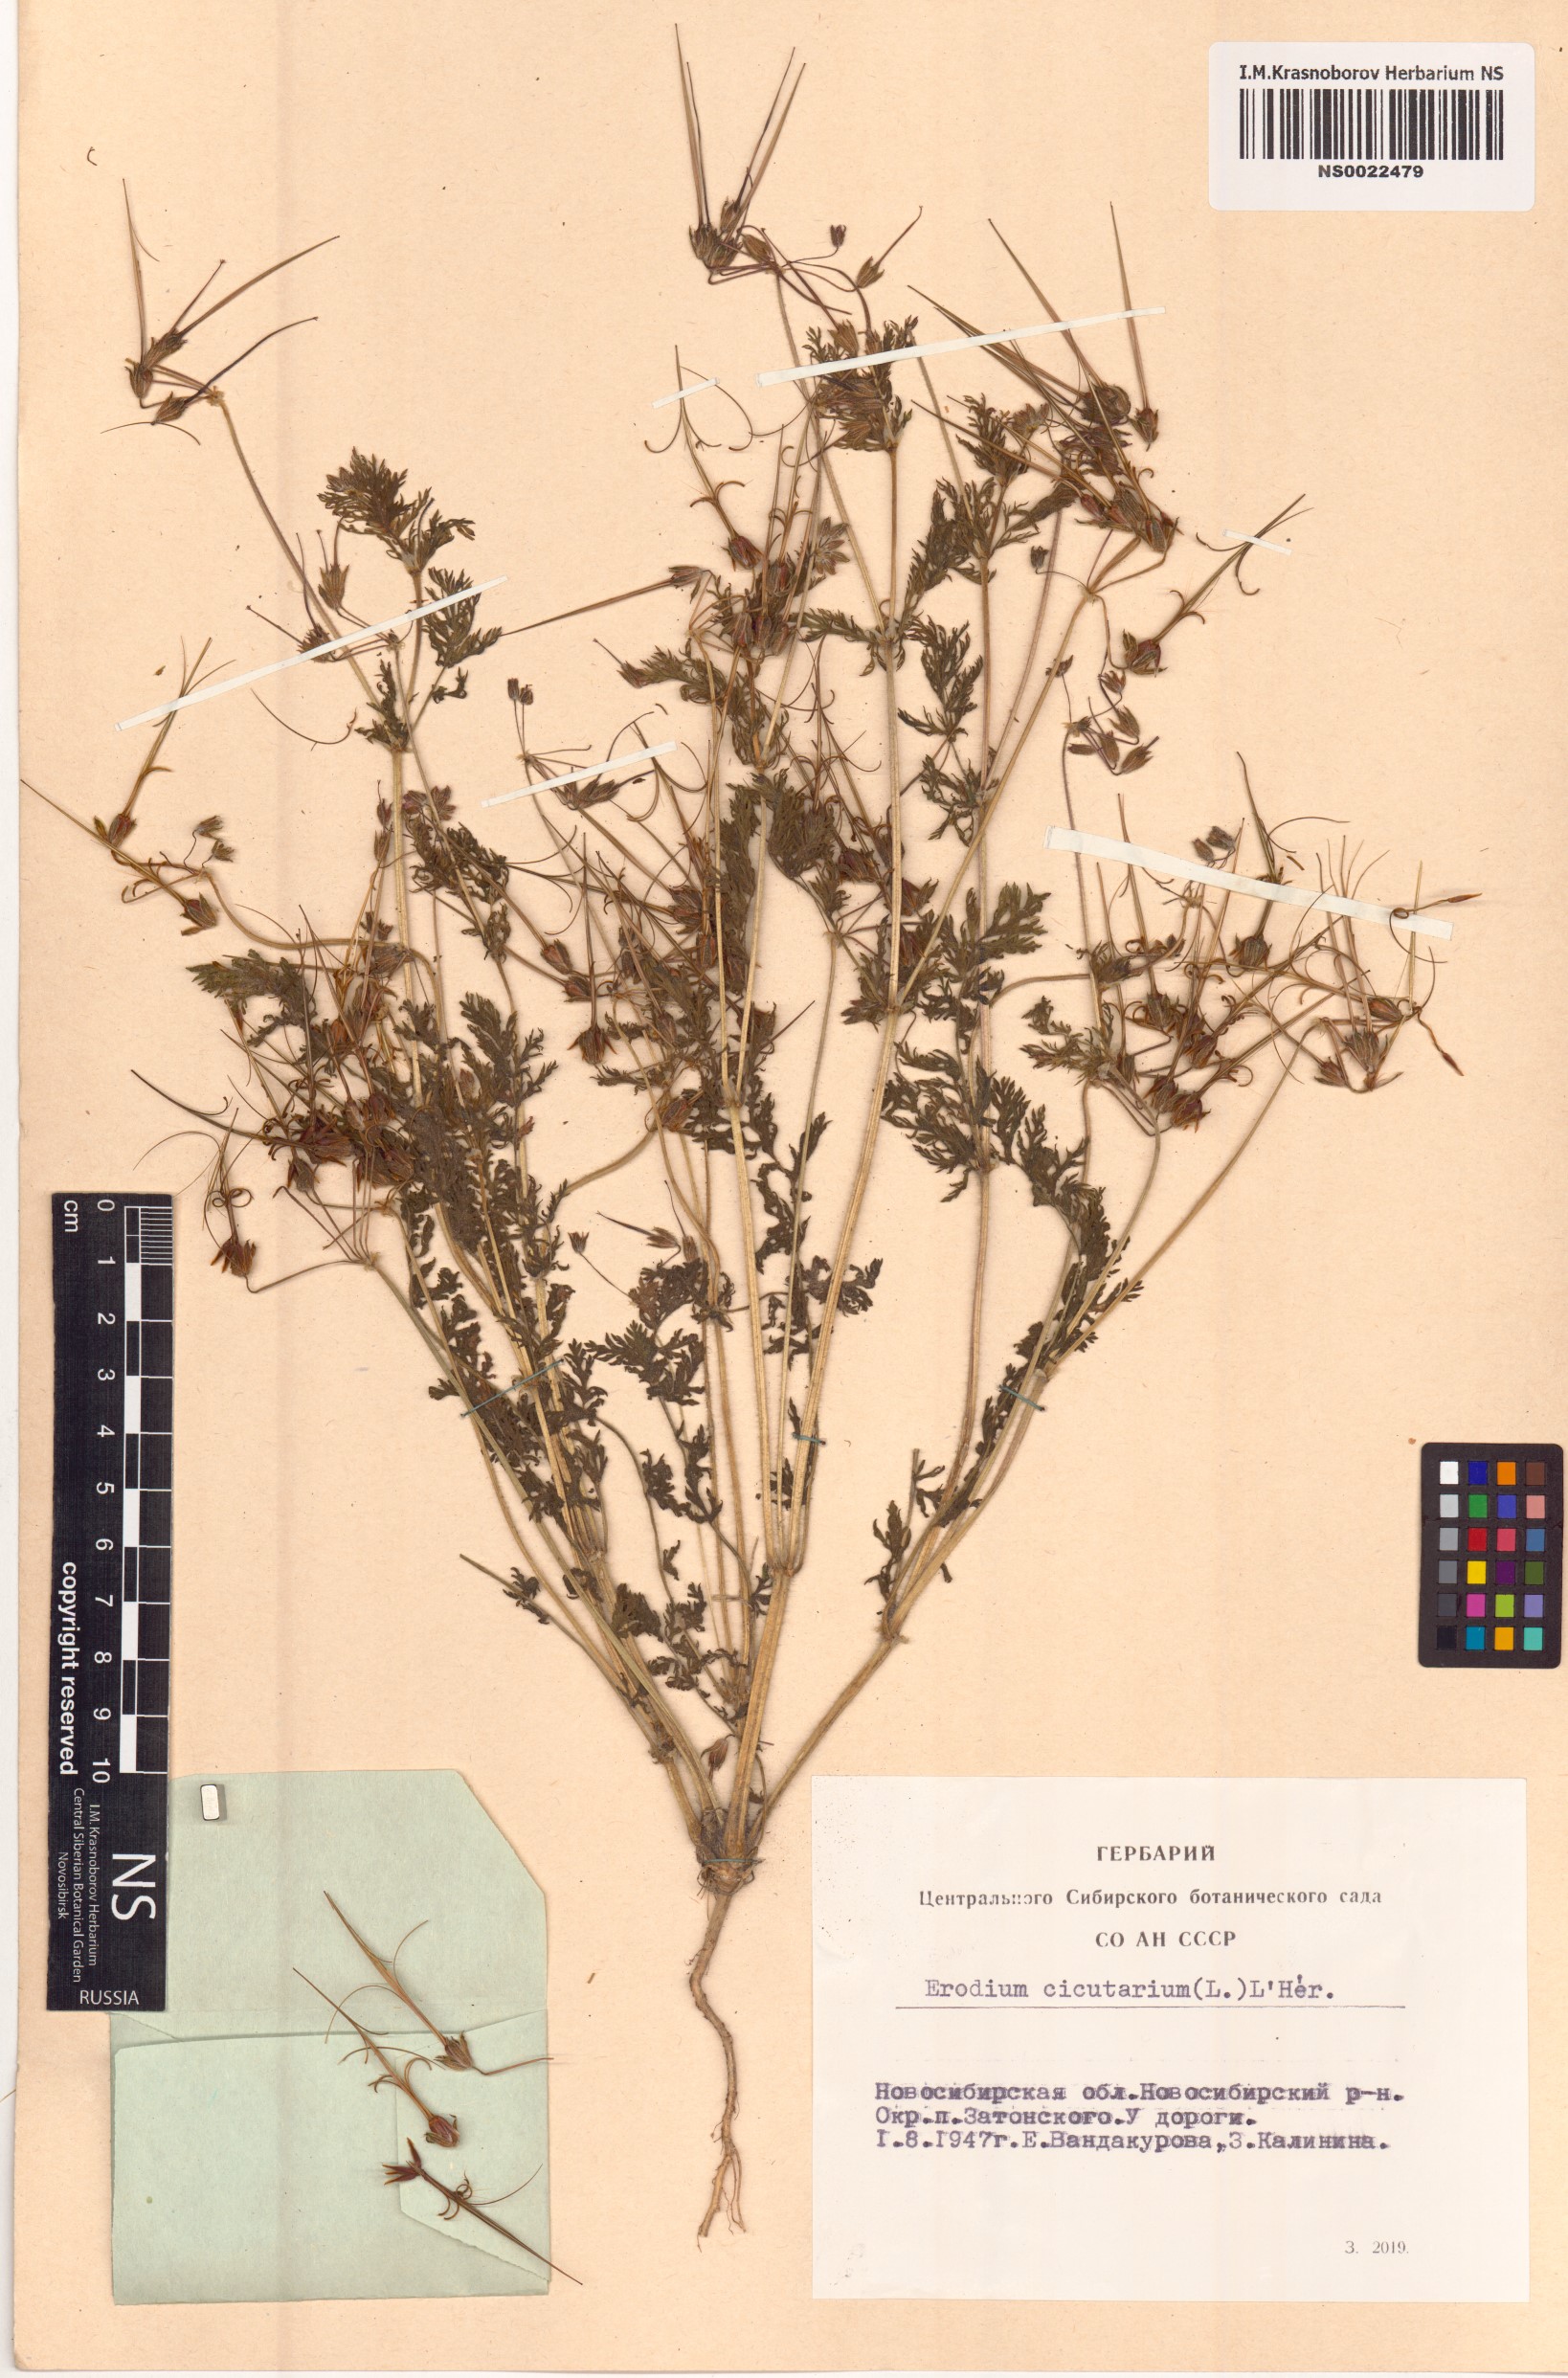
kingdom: Plantae
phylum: Tracheophyta
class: Magnoliopsida
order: Geraniales
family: Geraniaceae
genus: Erodium
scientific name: Erodium cicutarium
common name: Common stork's-bill
